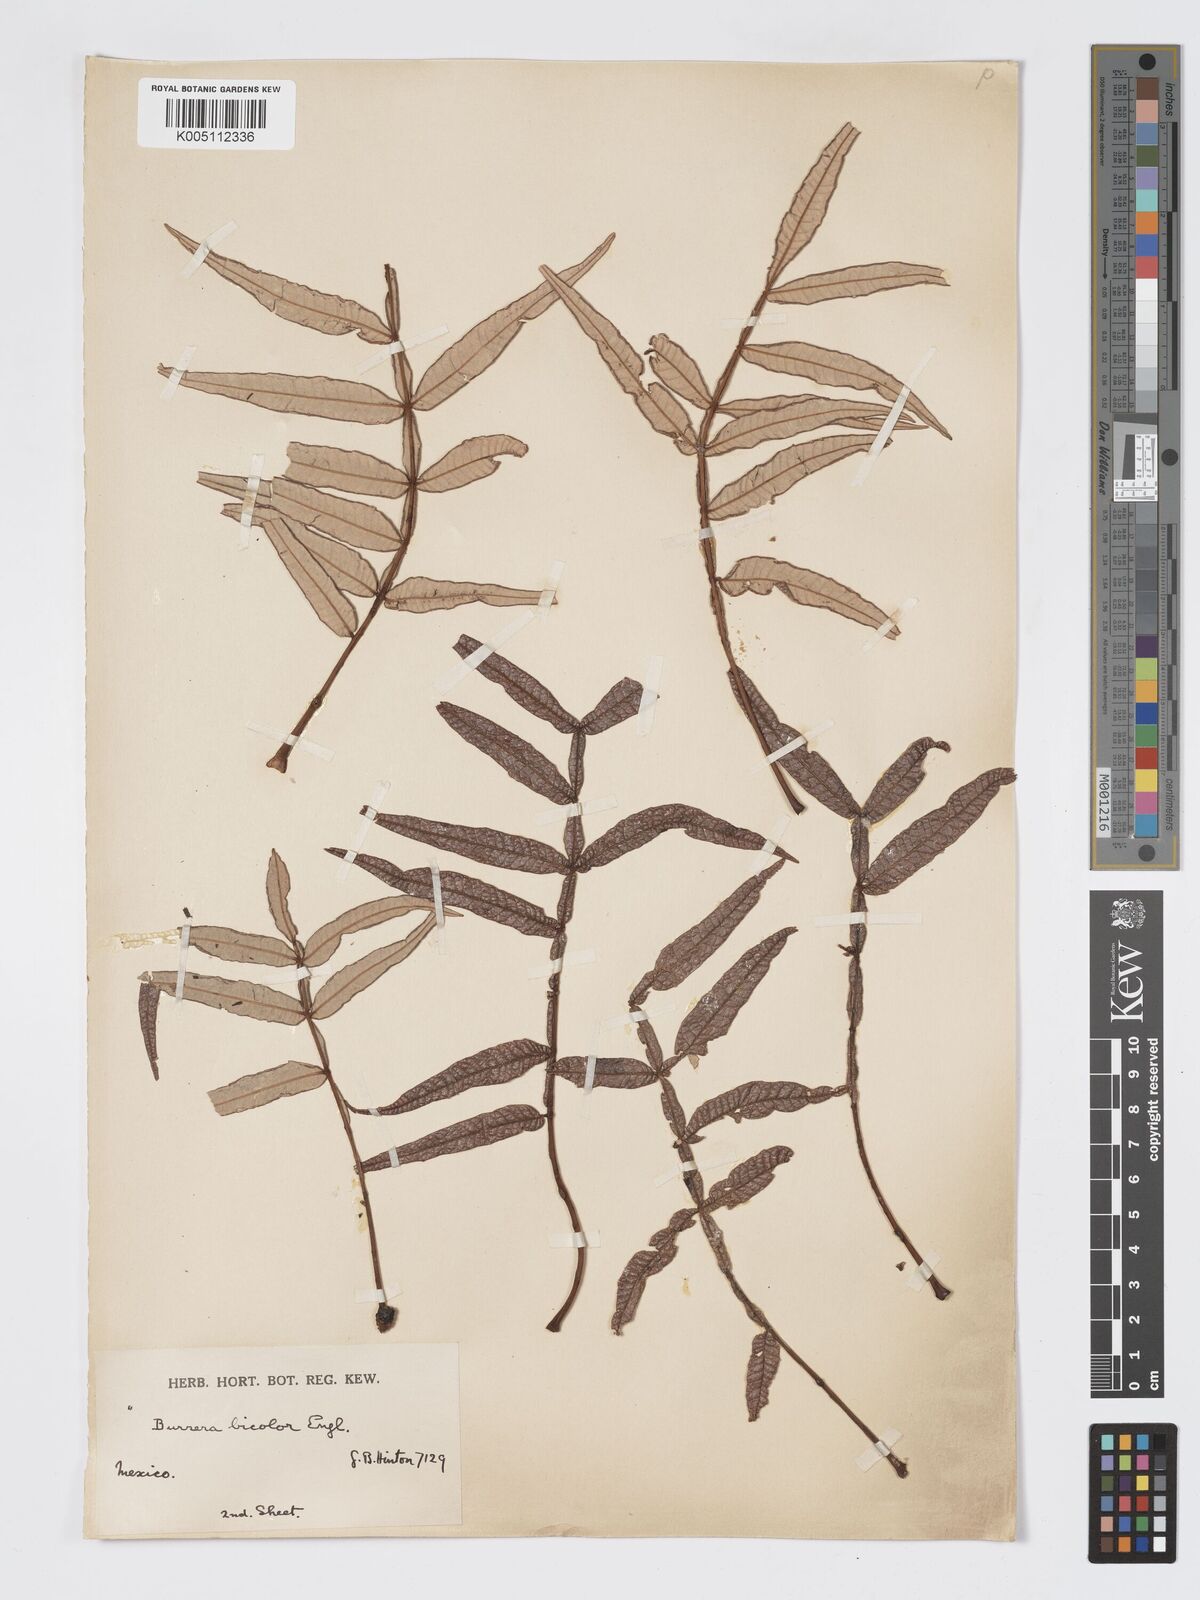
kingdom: Plantae
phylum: Tracheophyta
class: Magnoliopsida
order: Sapindales
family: Burseraceae
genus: Bursera
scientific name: Bursera bicolor
